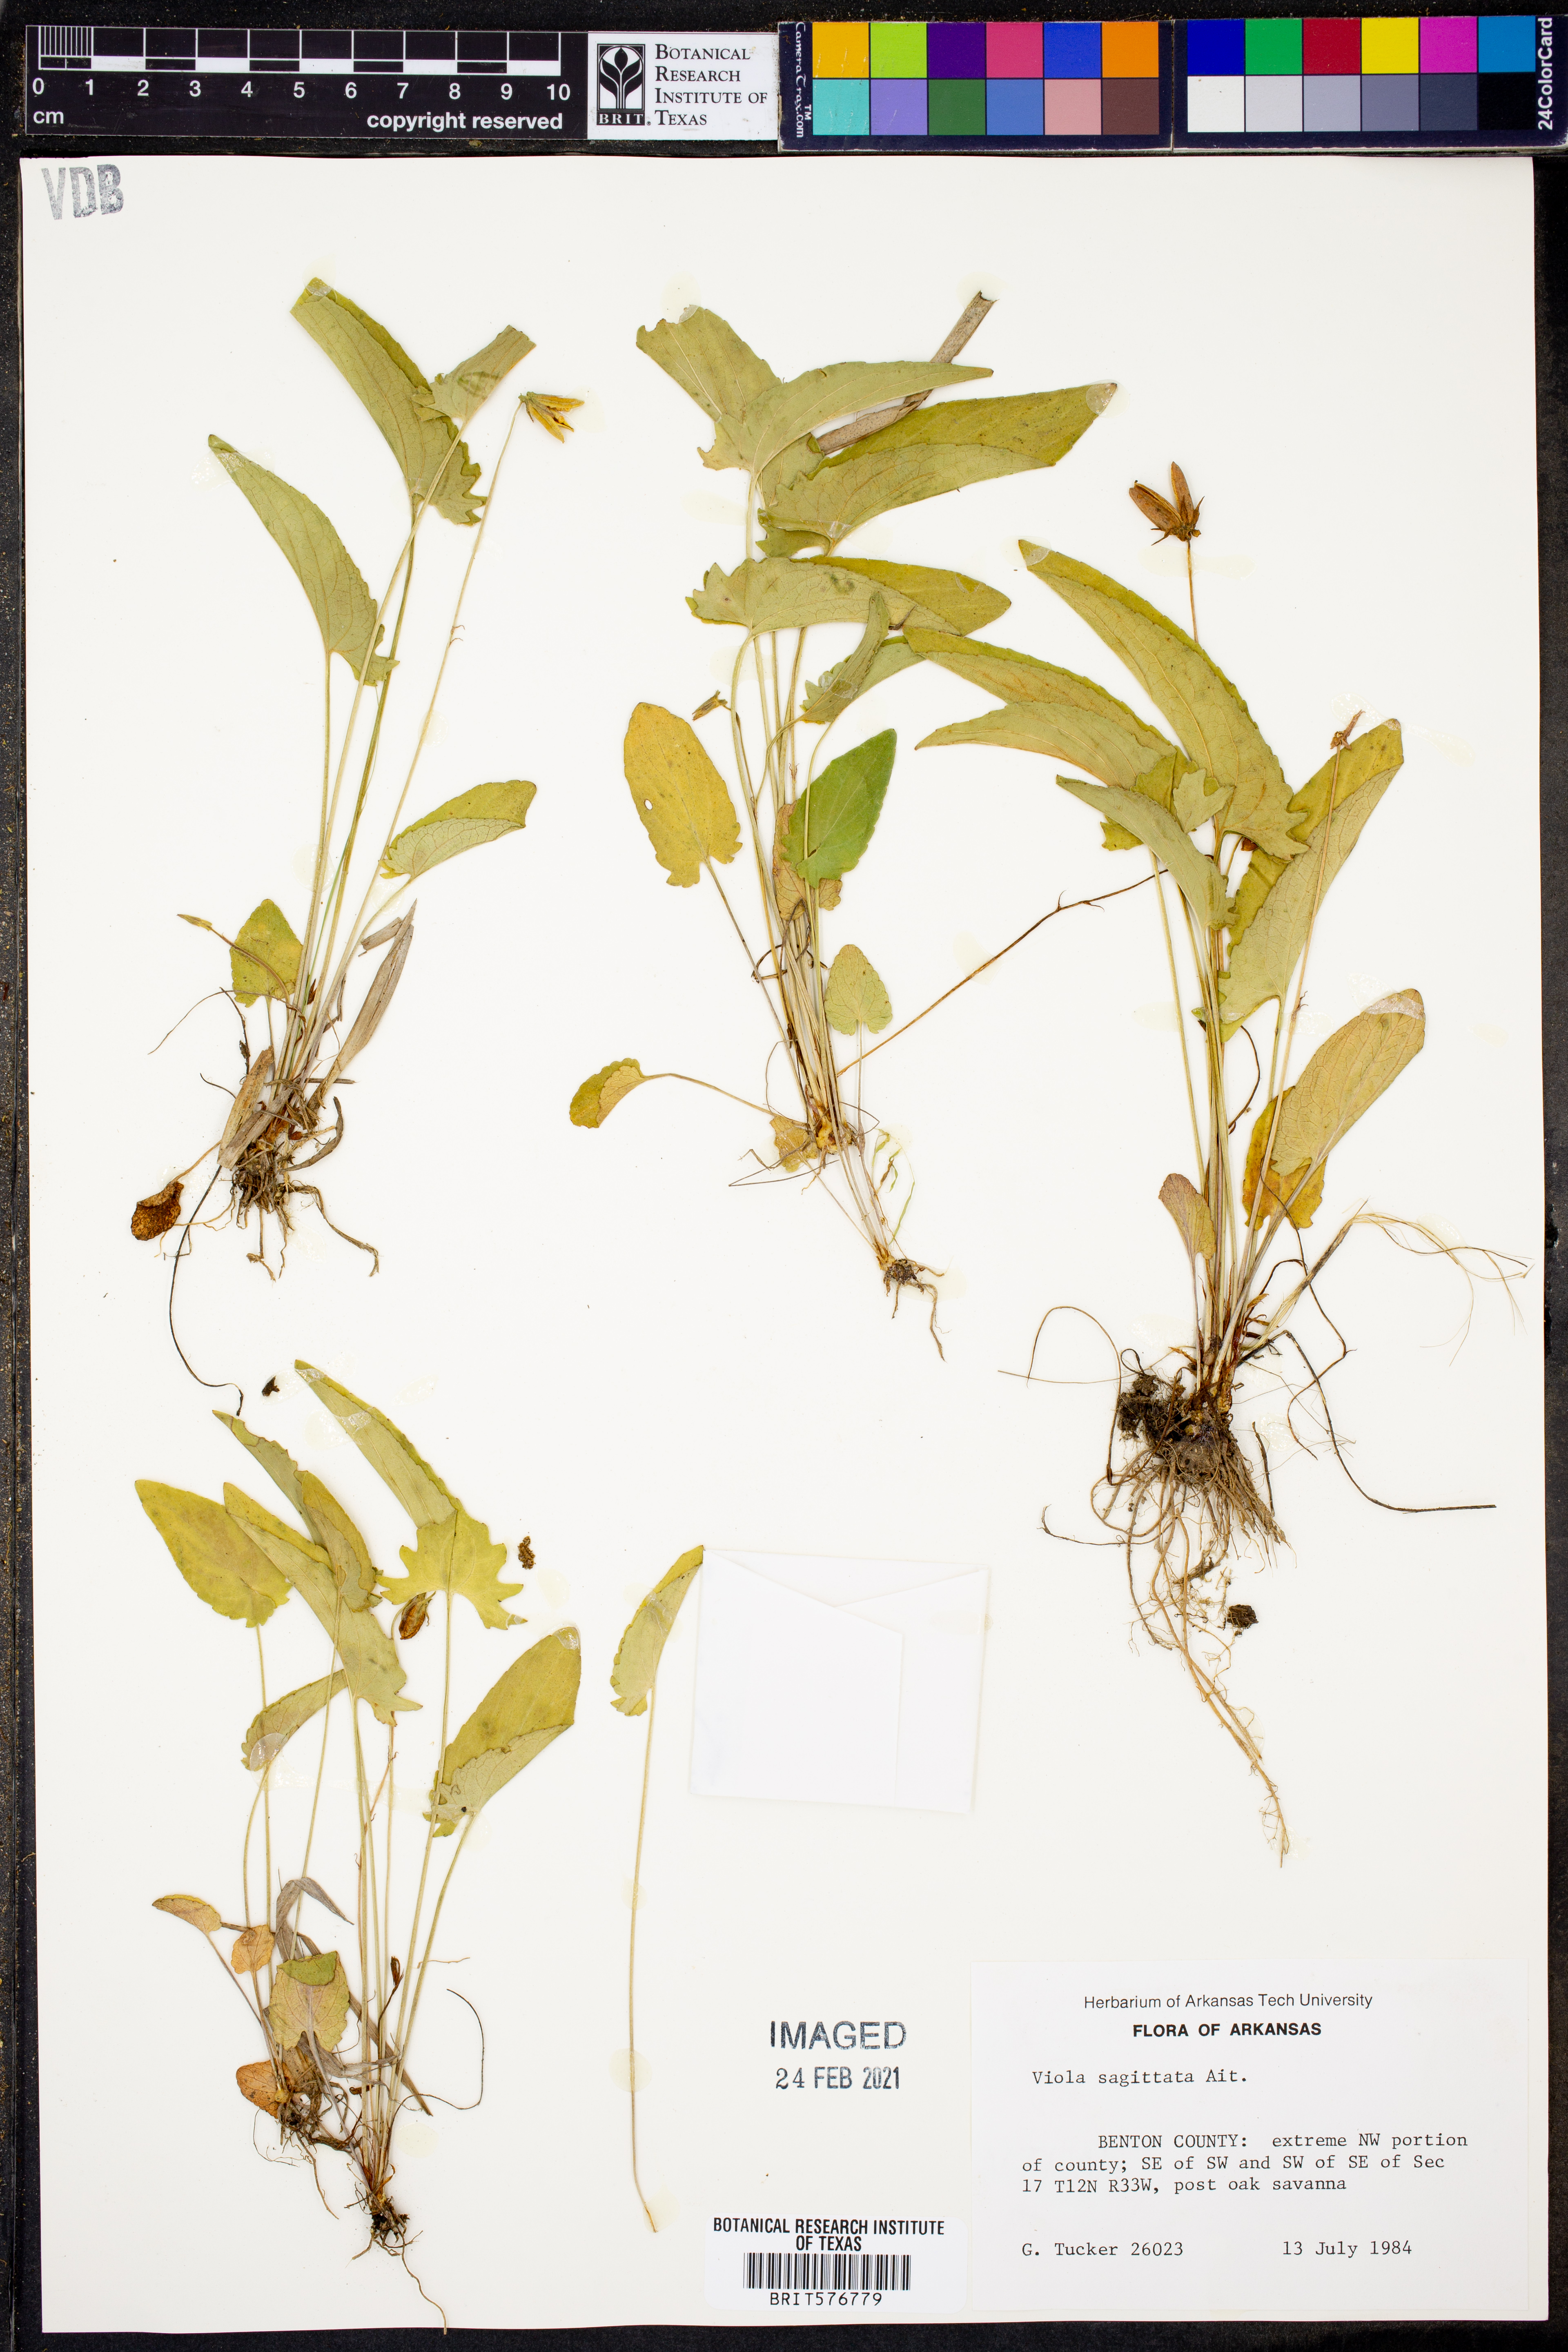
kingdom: Plantae
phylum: Tracheophyta
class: Magnoliopsida
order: Malpighiales
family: Violaceae
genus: Viola
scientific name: Viola sagittata
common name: Arrowhead violet
